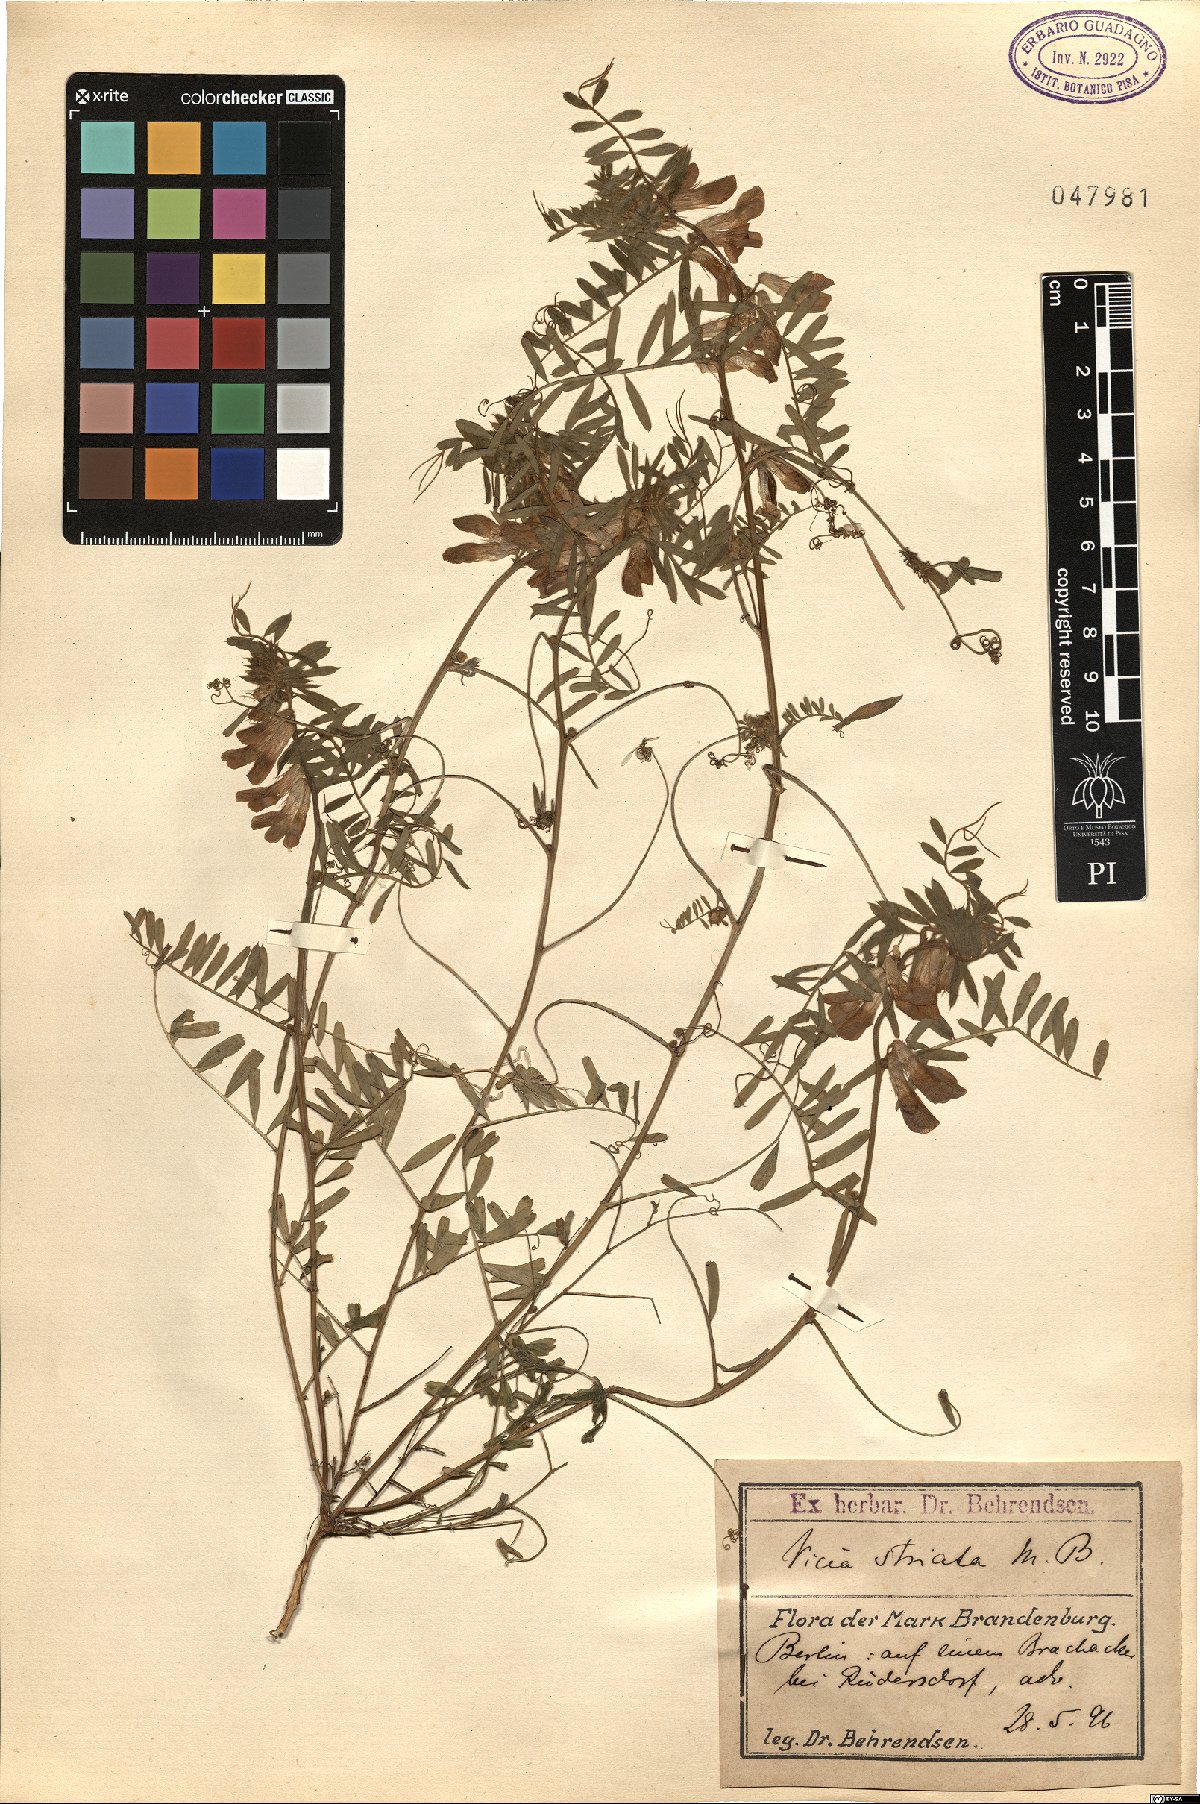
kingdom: Plantae
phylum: Tracheophyta
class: Magnoliopsida
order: Fabales
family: Fabaceae
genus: Vicia
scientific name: Vicia pannonica
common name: Hungarian vetch
